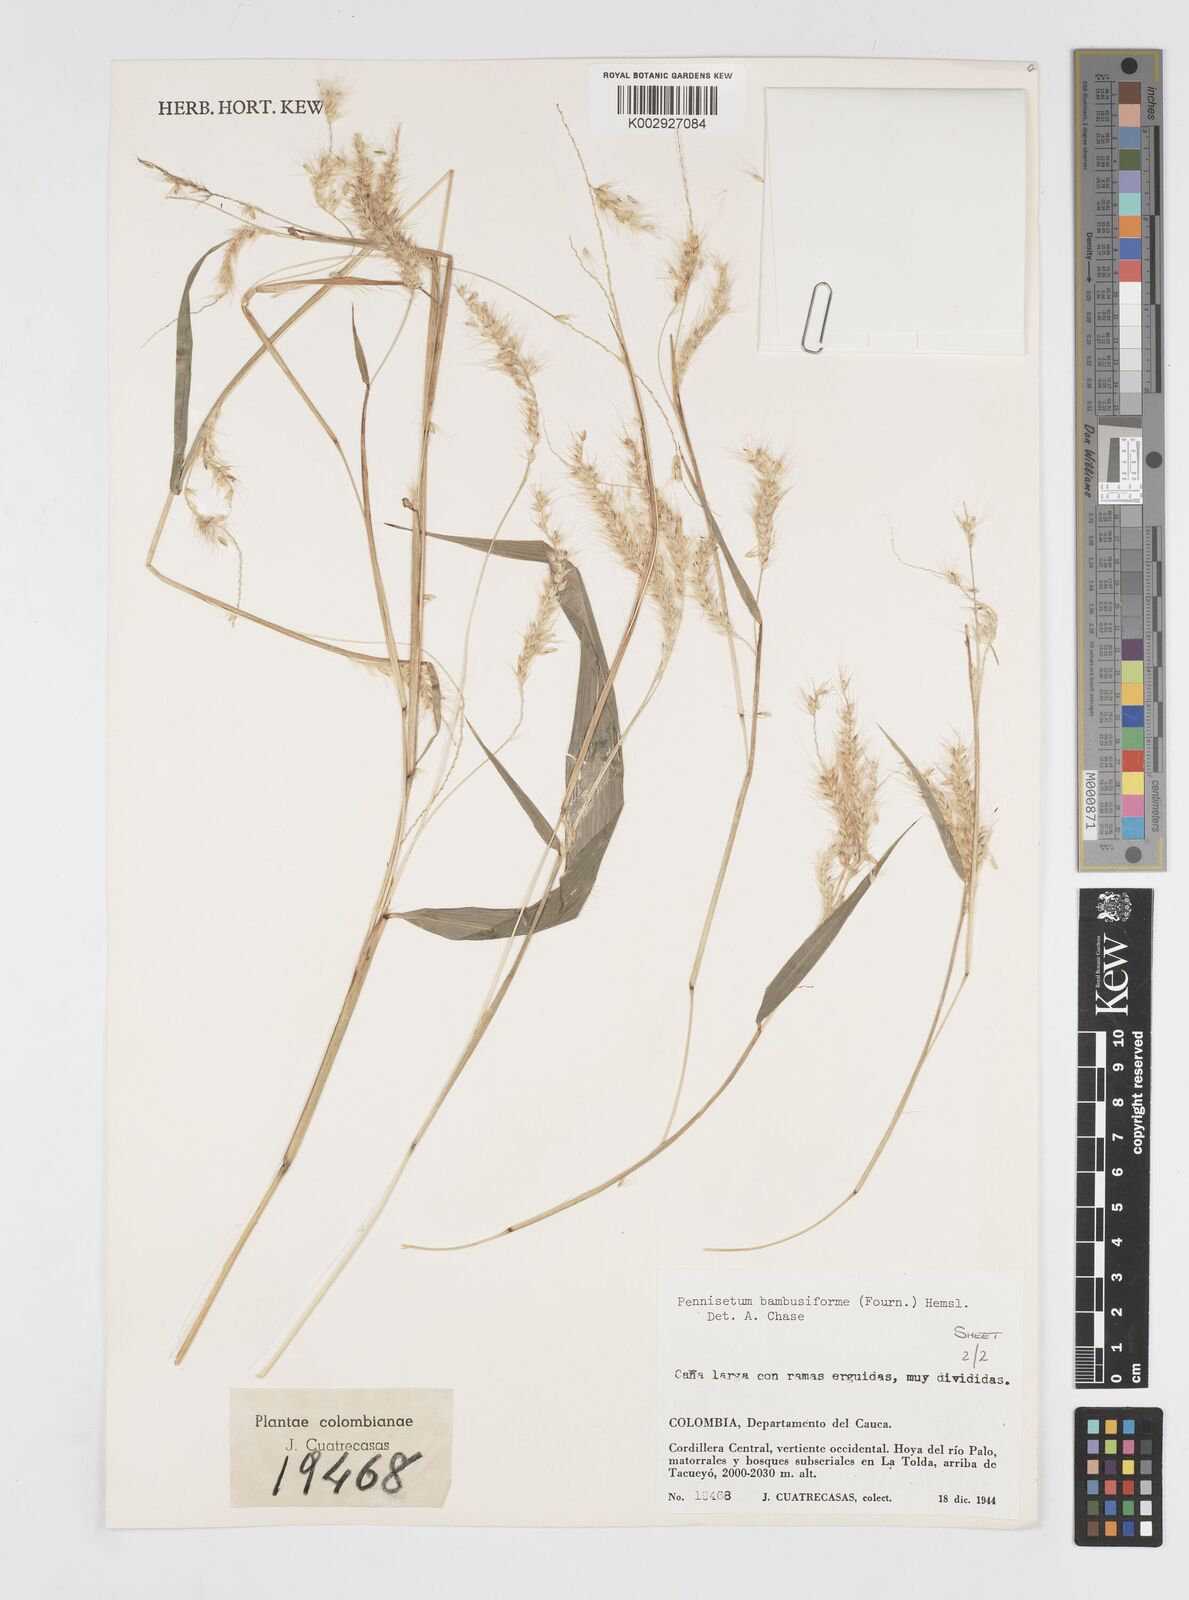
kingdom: Plantae
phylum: Tracheophyta
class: Liliopsida
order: Poales
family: Poaceae
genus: Cenchrus
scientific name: Cenchrus tristachyus
